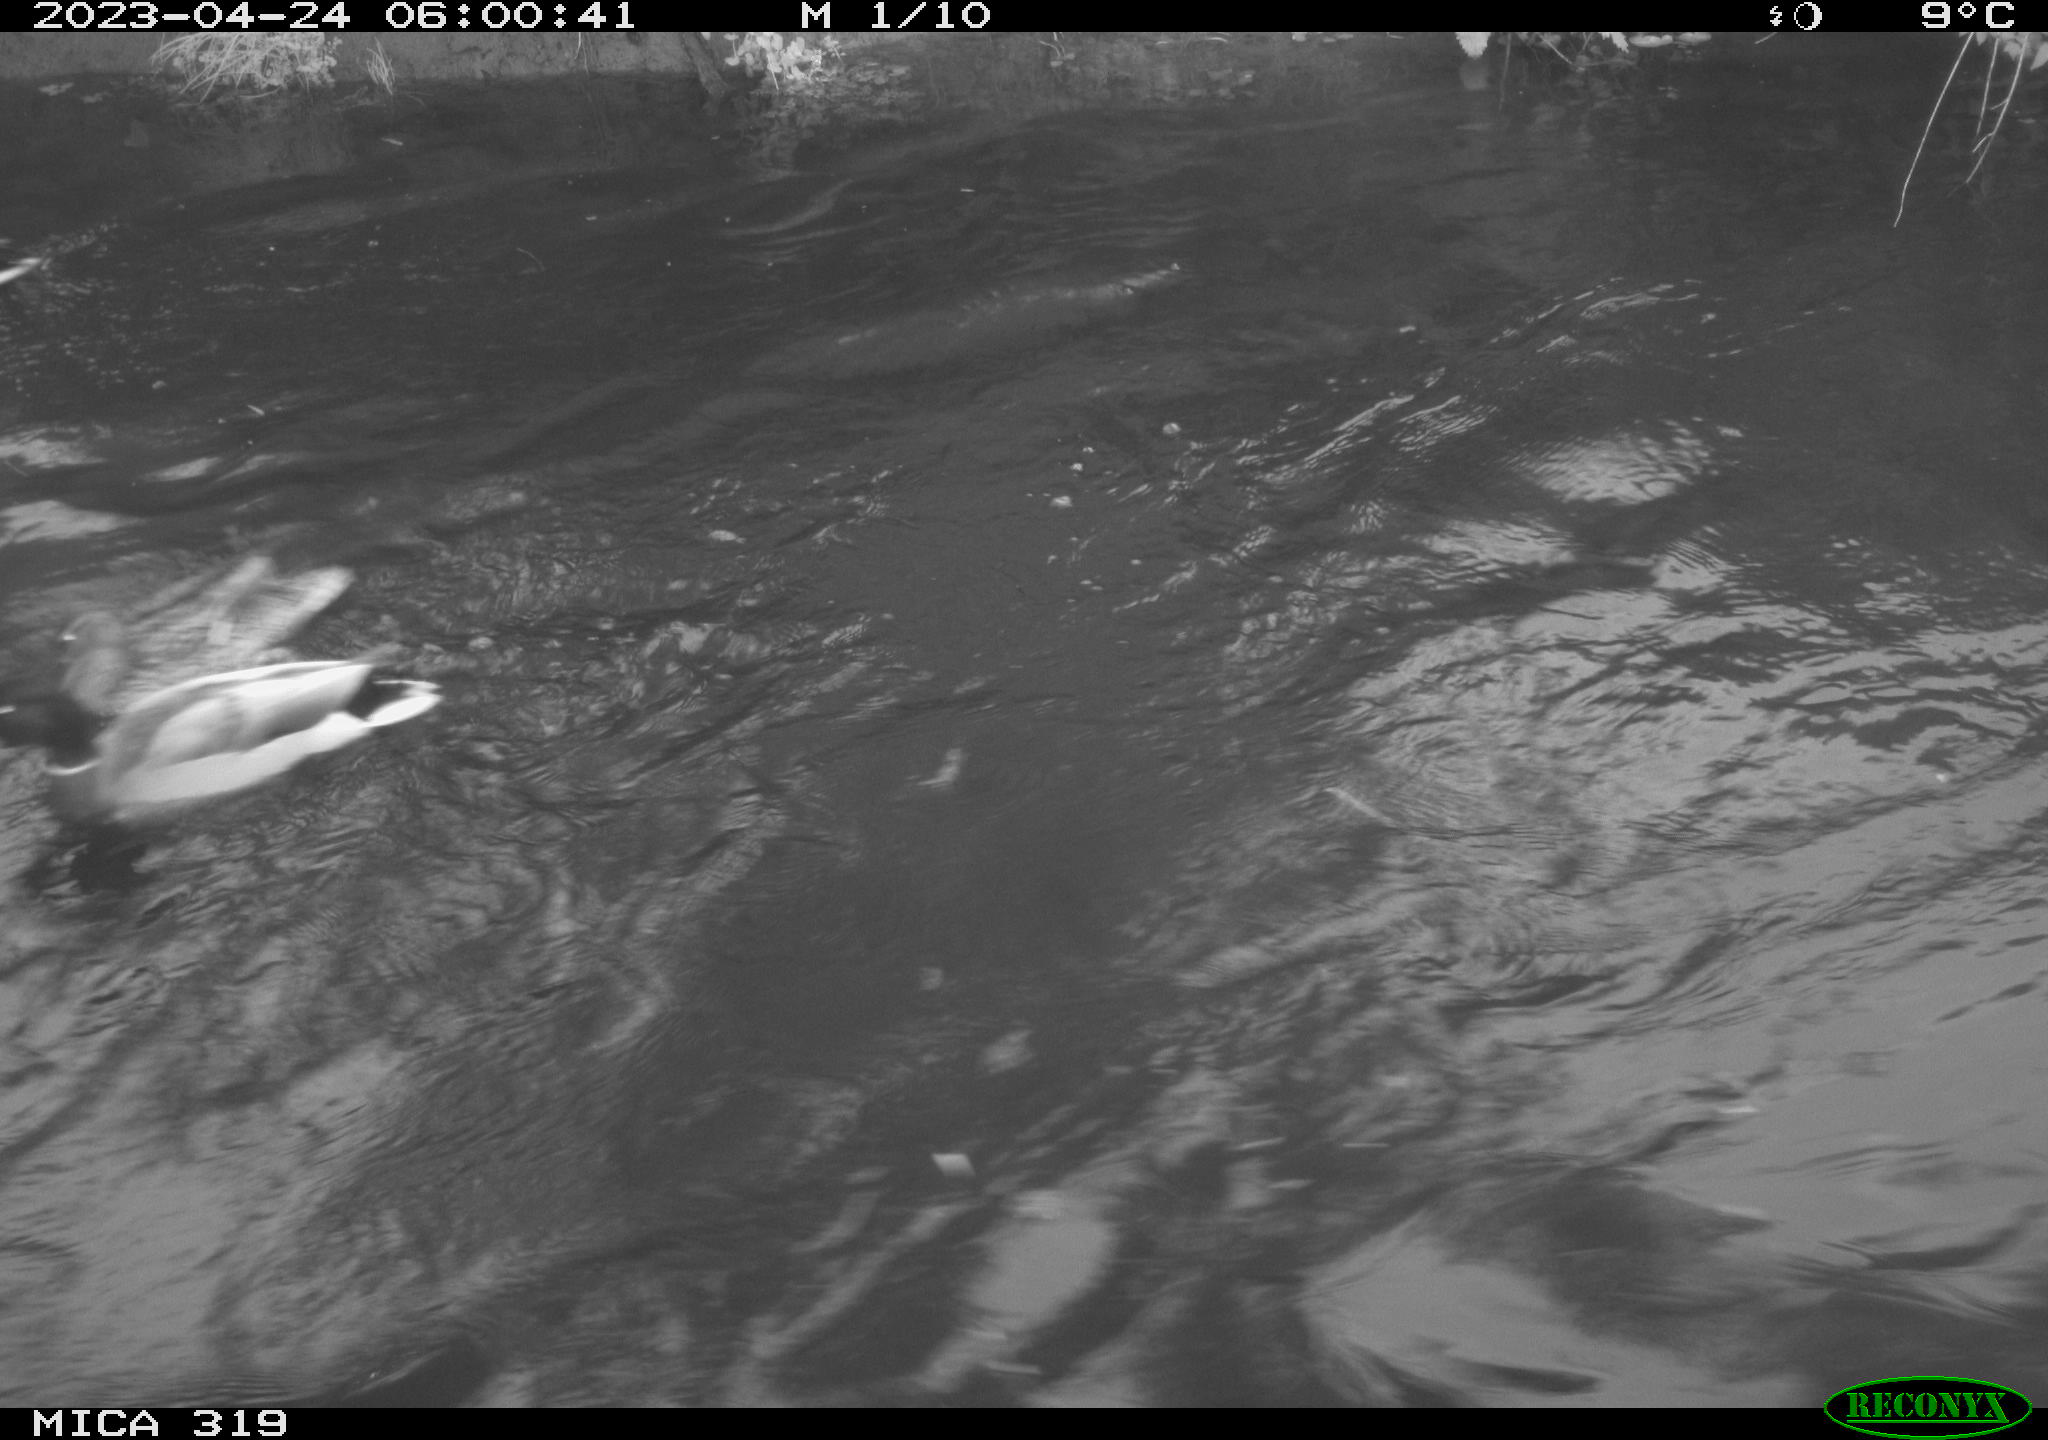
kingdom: Animalia
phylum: Chordata
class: Aves
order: Anseriformes
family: Anatidae
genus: Anas
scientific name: Anas
